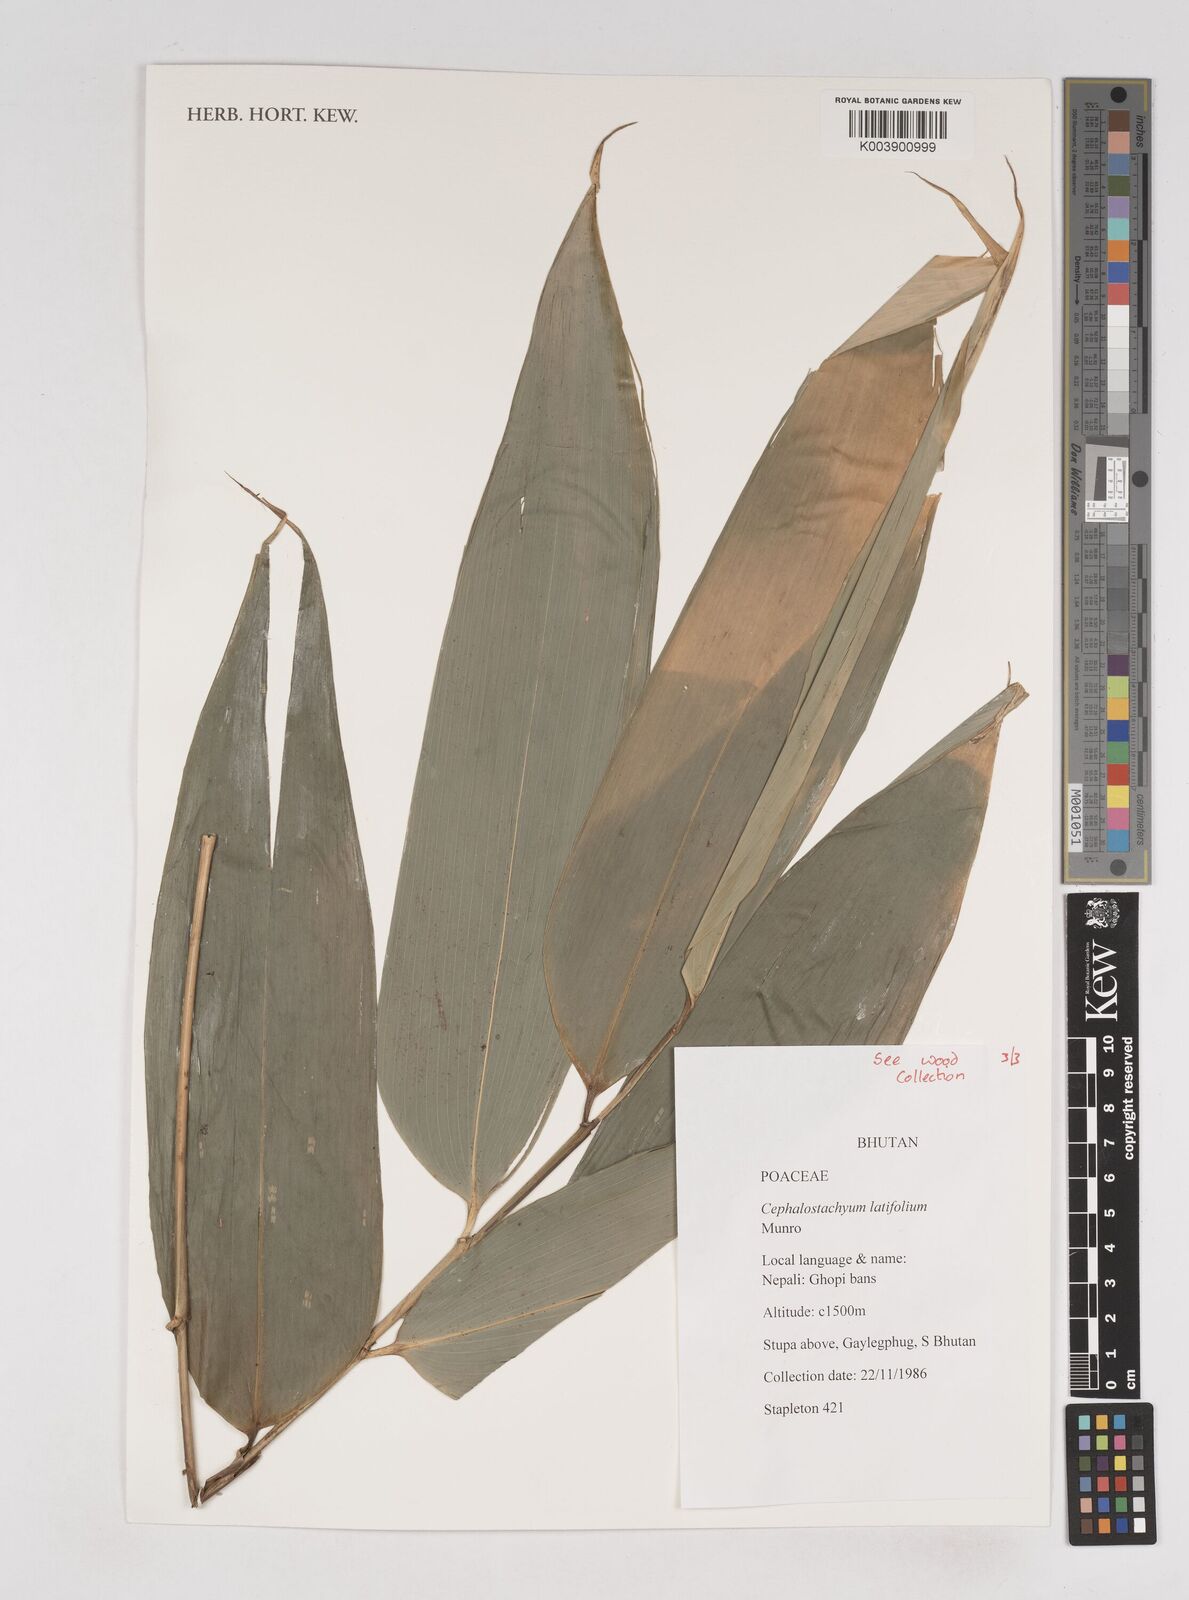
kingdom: Plantae
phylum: Tracheophyta
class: Liliopsida
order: Poales
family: Poaceae
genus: Cephalostachyum
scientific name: Cephalostachyum latifolium
